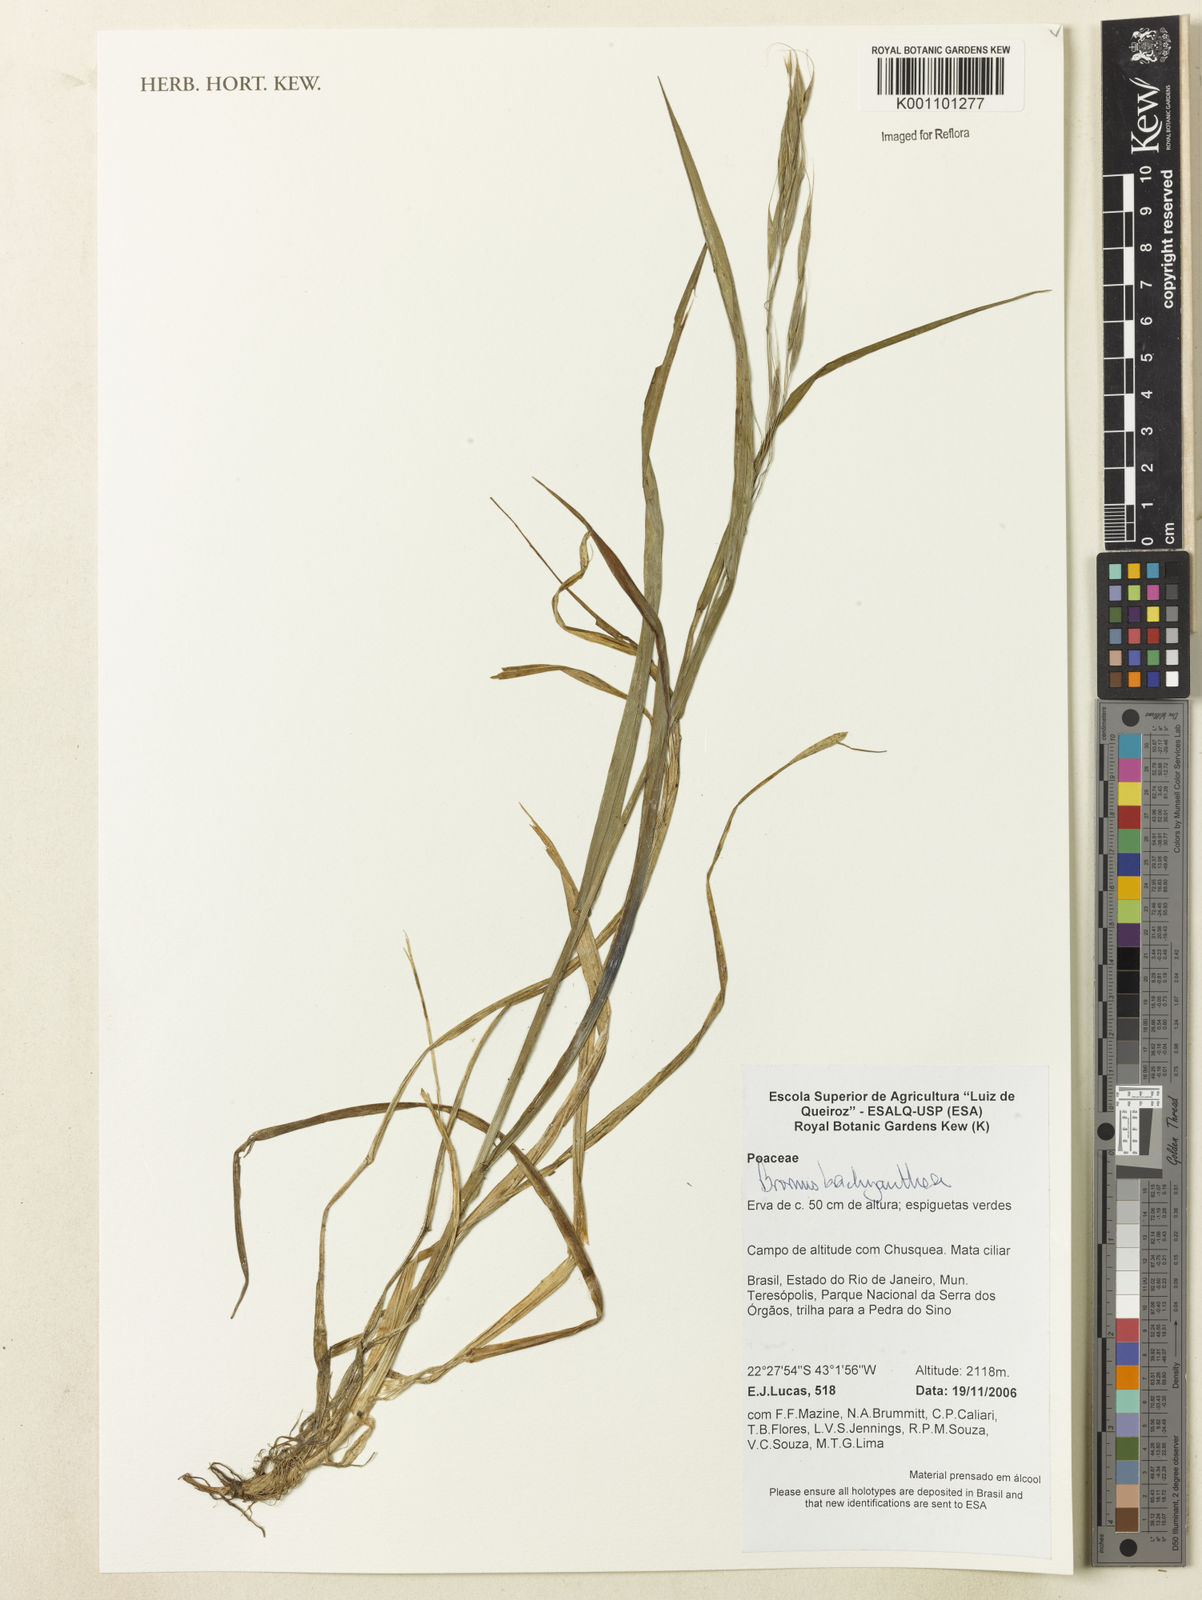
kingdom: Plantae
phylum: Tracheophyta
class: Liliopsida
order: Poales
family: Poaceae
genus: Bromus
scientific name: Bromus
